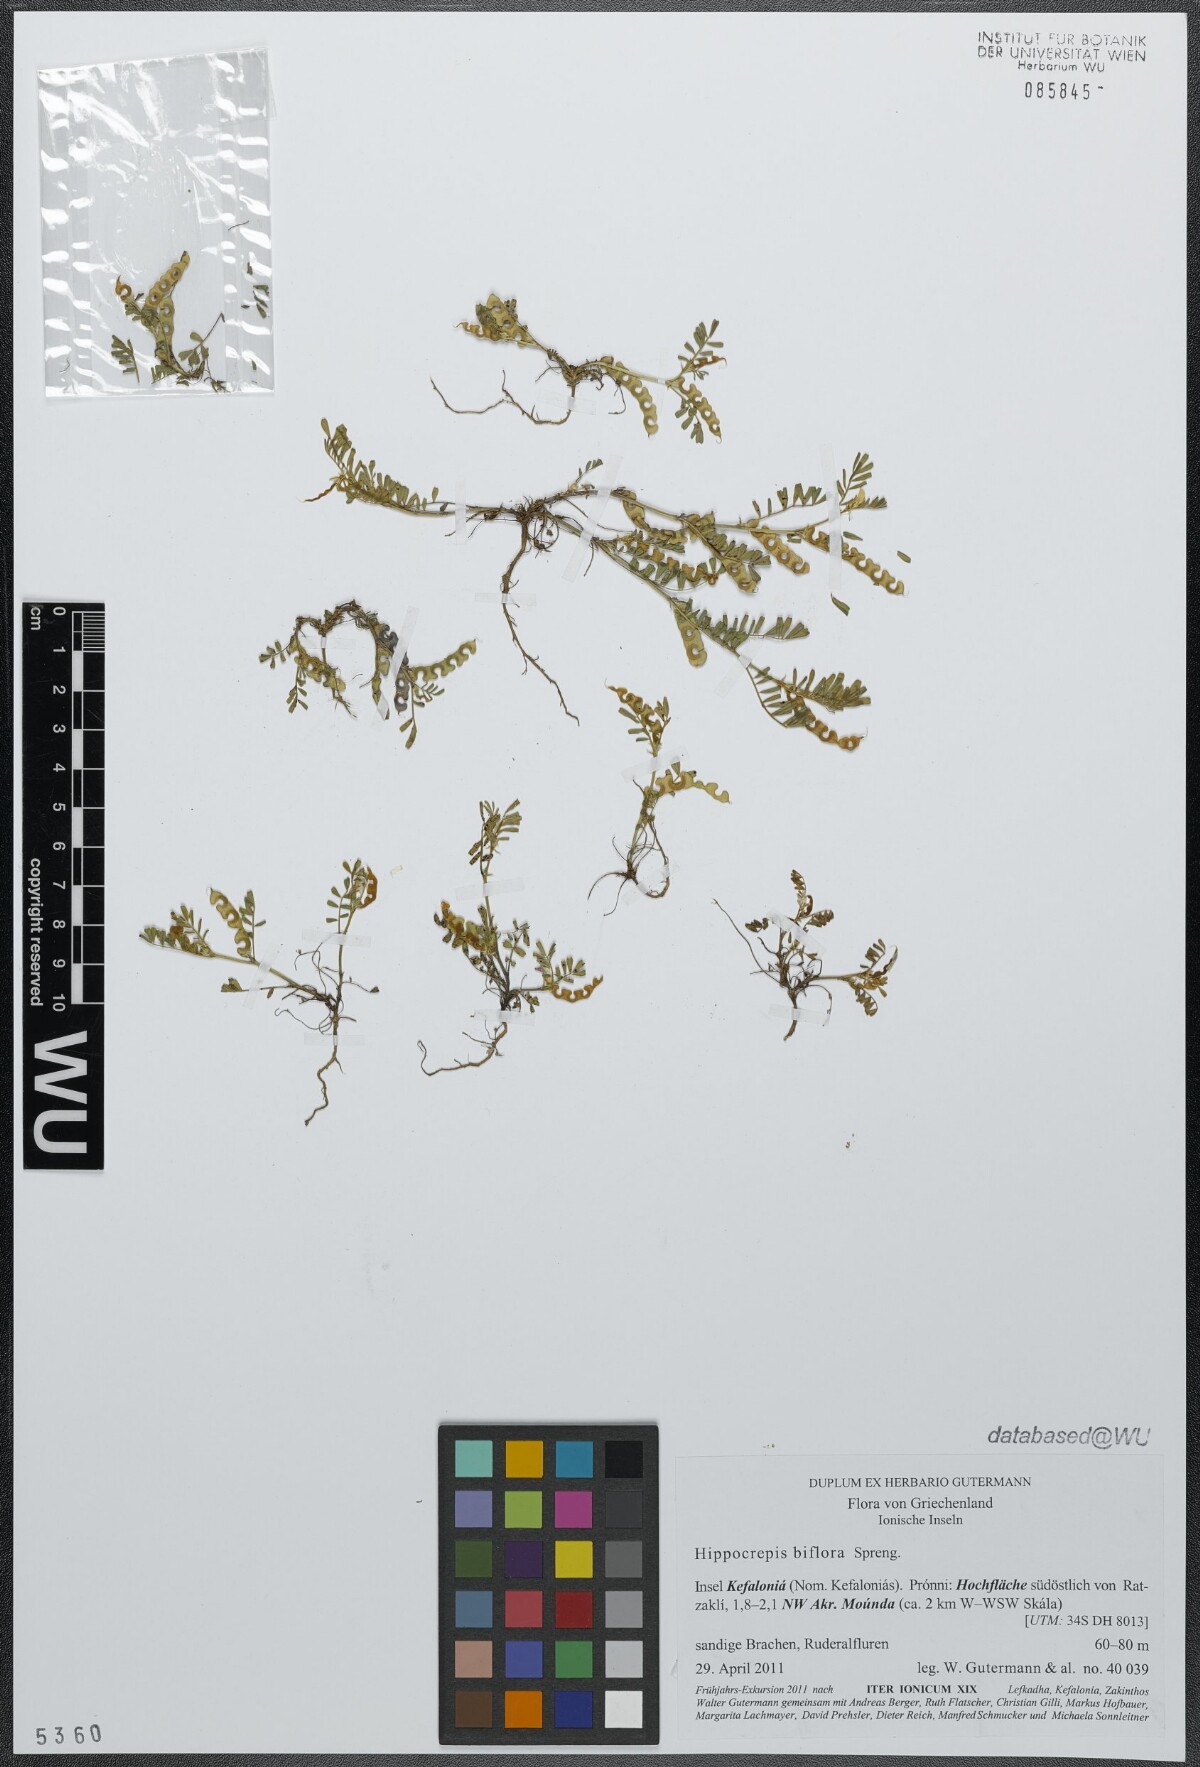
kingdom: Plantae
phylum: Tracheophyta
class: Magnoliopsida
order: Fabales
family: Fabaceae
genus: Hippocrepis
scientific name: Hippocrepis biflora
